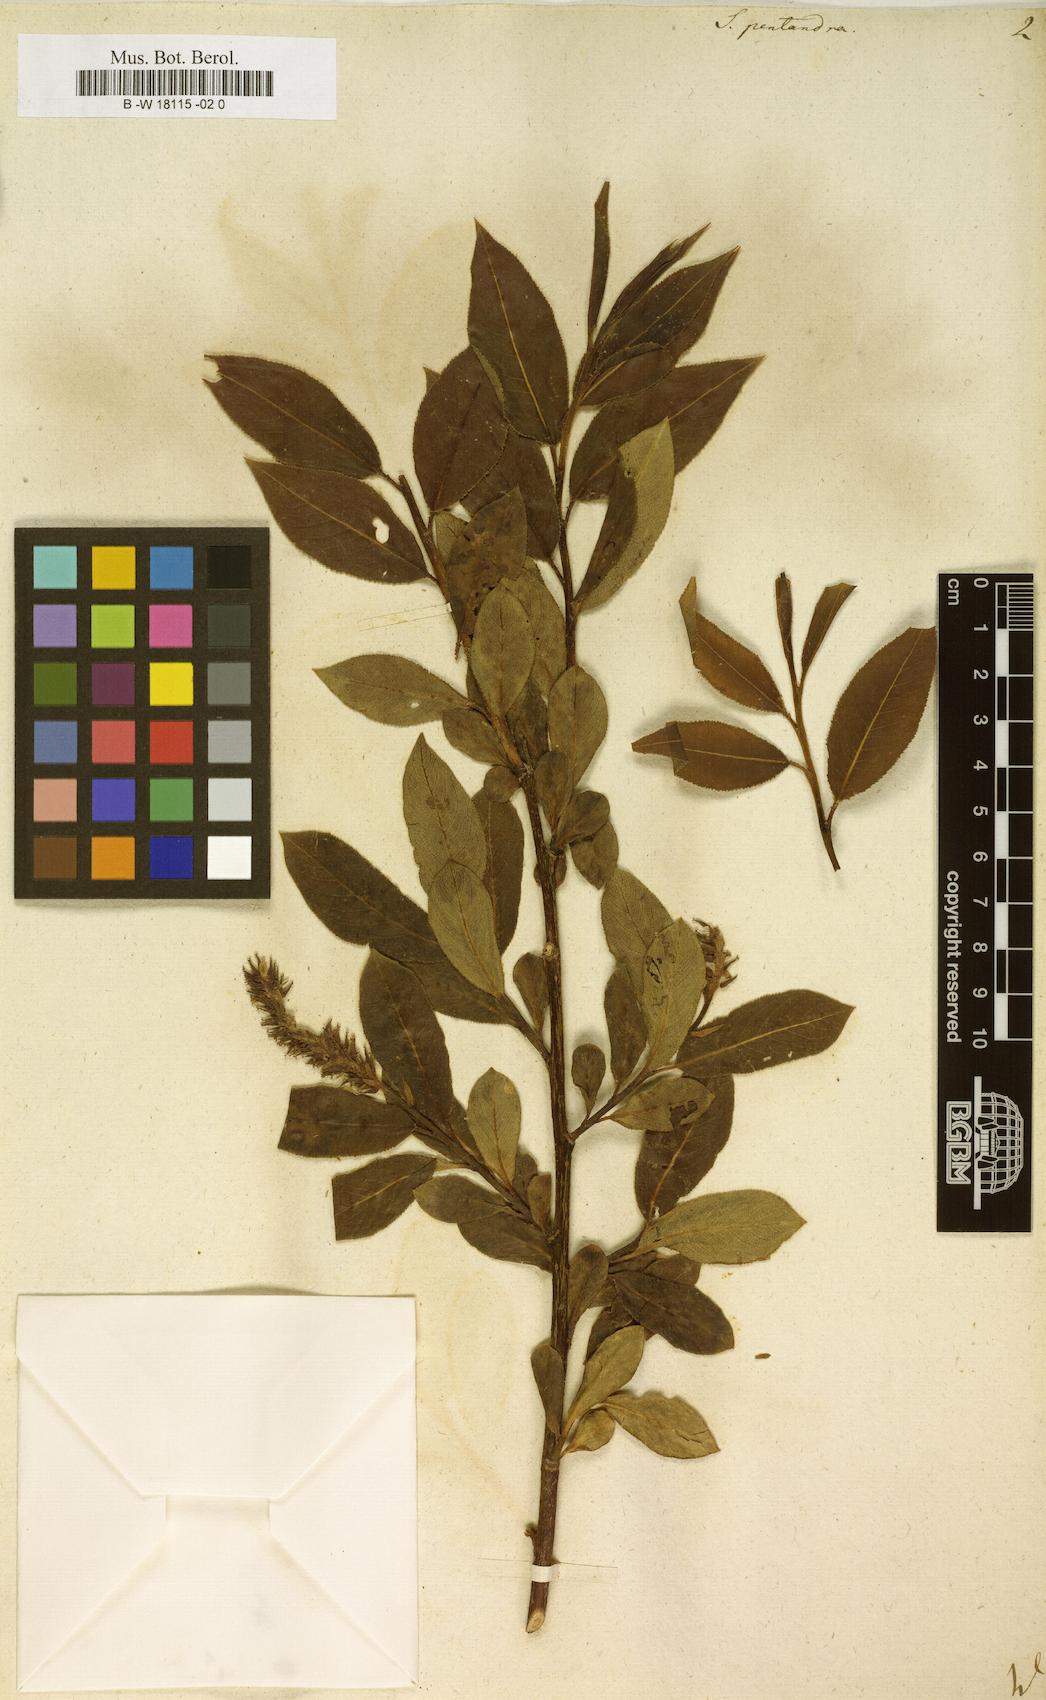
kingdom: Plantae
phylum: Tracheophyta
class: Magnoliopsida
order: Malpighiales
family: Salicaceae
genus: Salix
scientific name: Salix pentandra
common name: Bay willow
